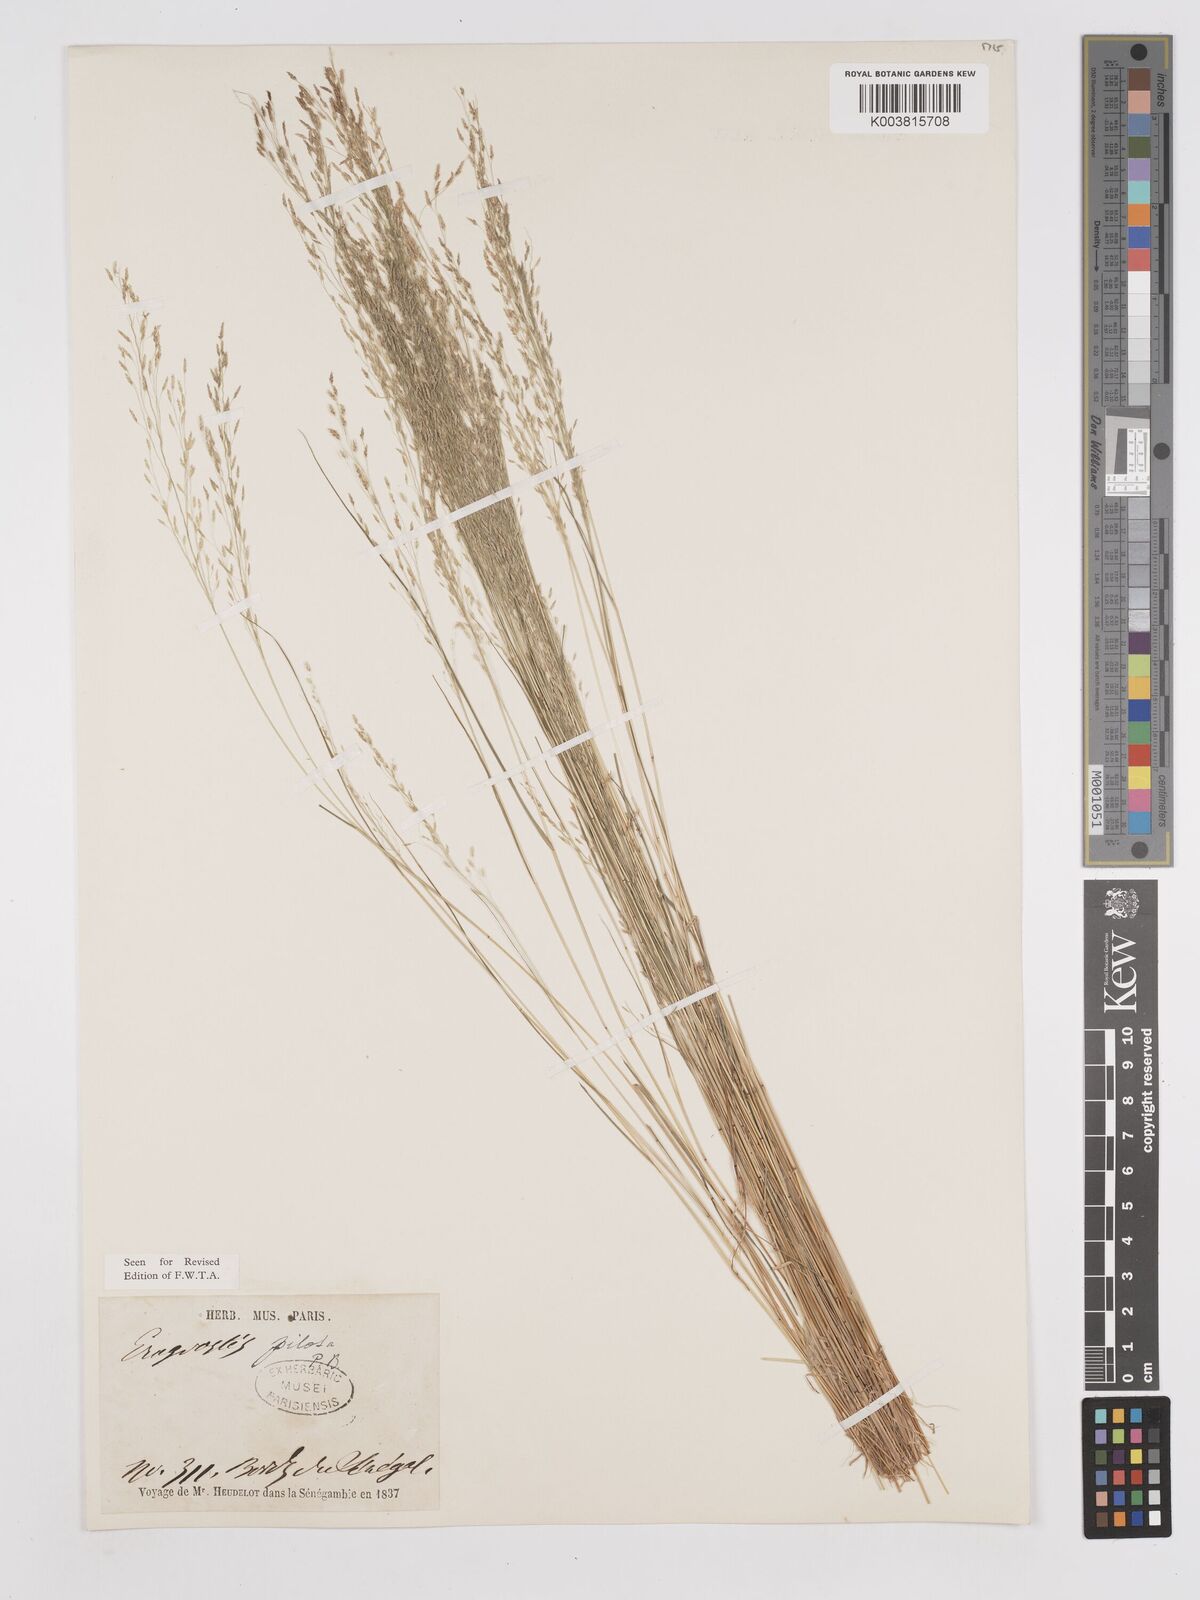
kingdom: Plantae
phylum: Tracheophyta
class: Liliopsida
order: Poales
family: Poaceae
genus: Eragrostis
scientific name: Eragrostis pilosa
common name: Indian lovegrass
